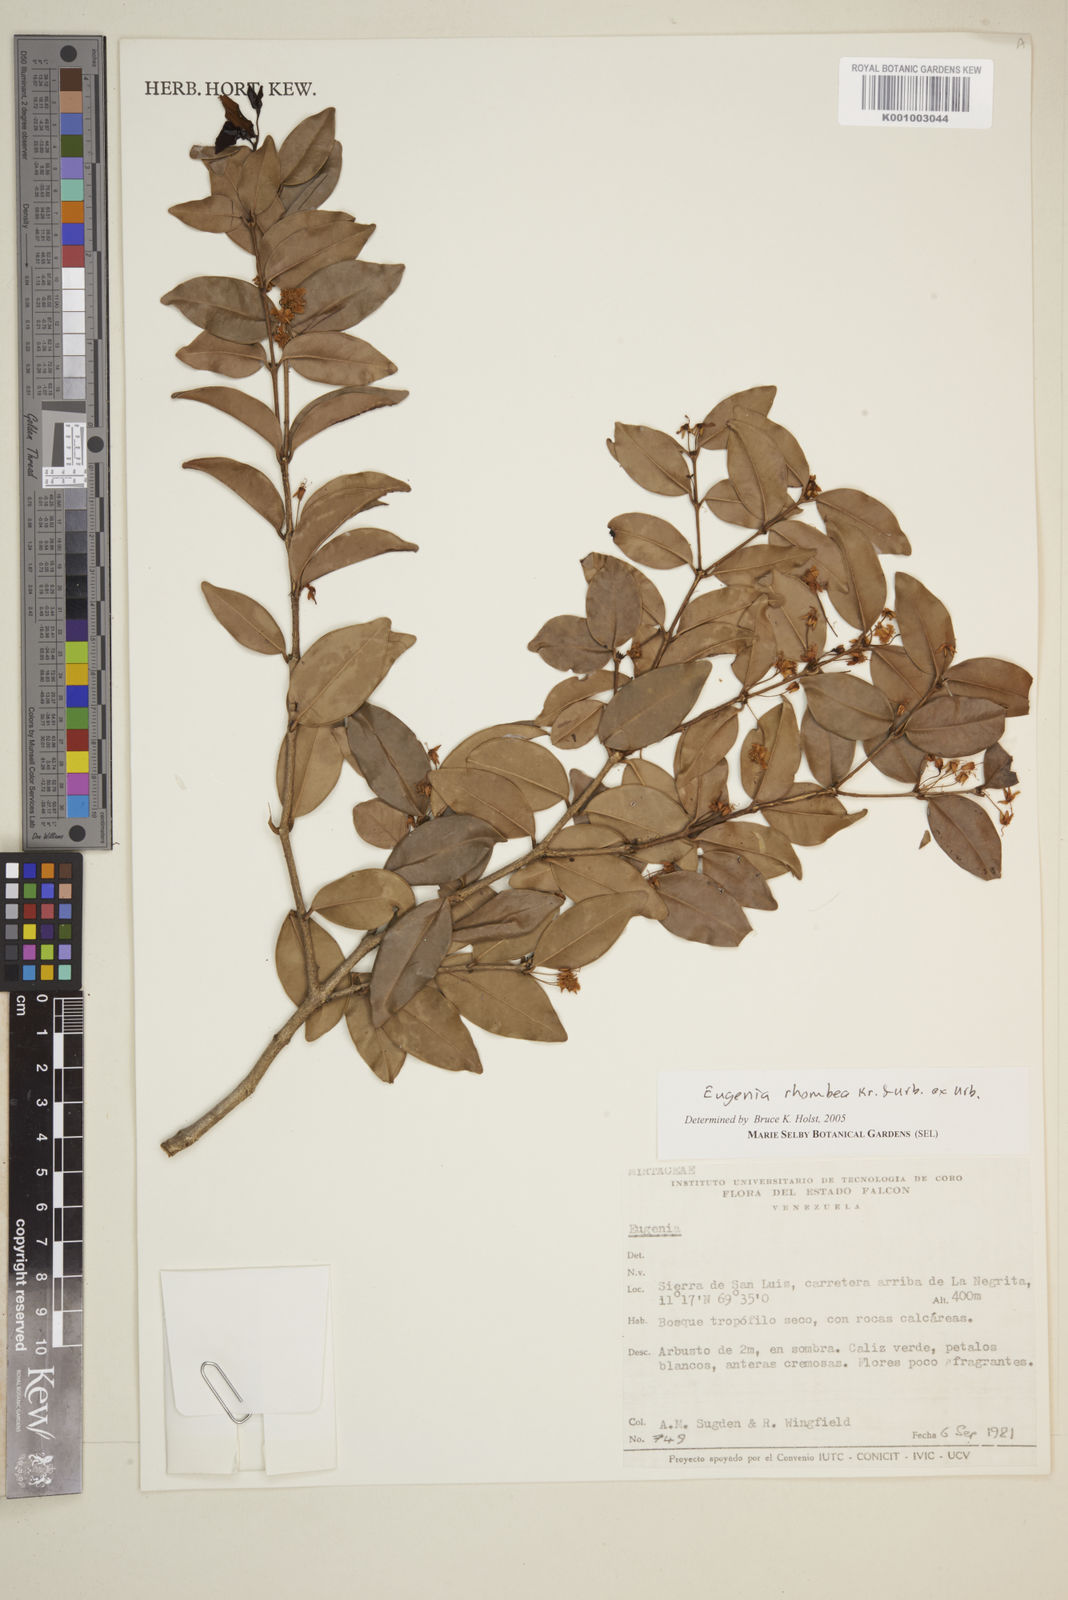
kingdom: Plantae
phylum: Tracheophyta
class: Magnoliopsida
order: Myrtales
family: Myrtaceae
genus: Eugenia
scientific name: Eugenia rhombea
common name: Pigeon berry
